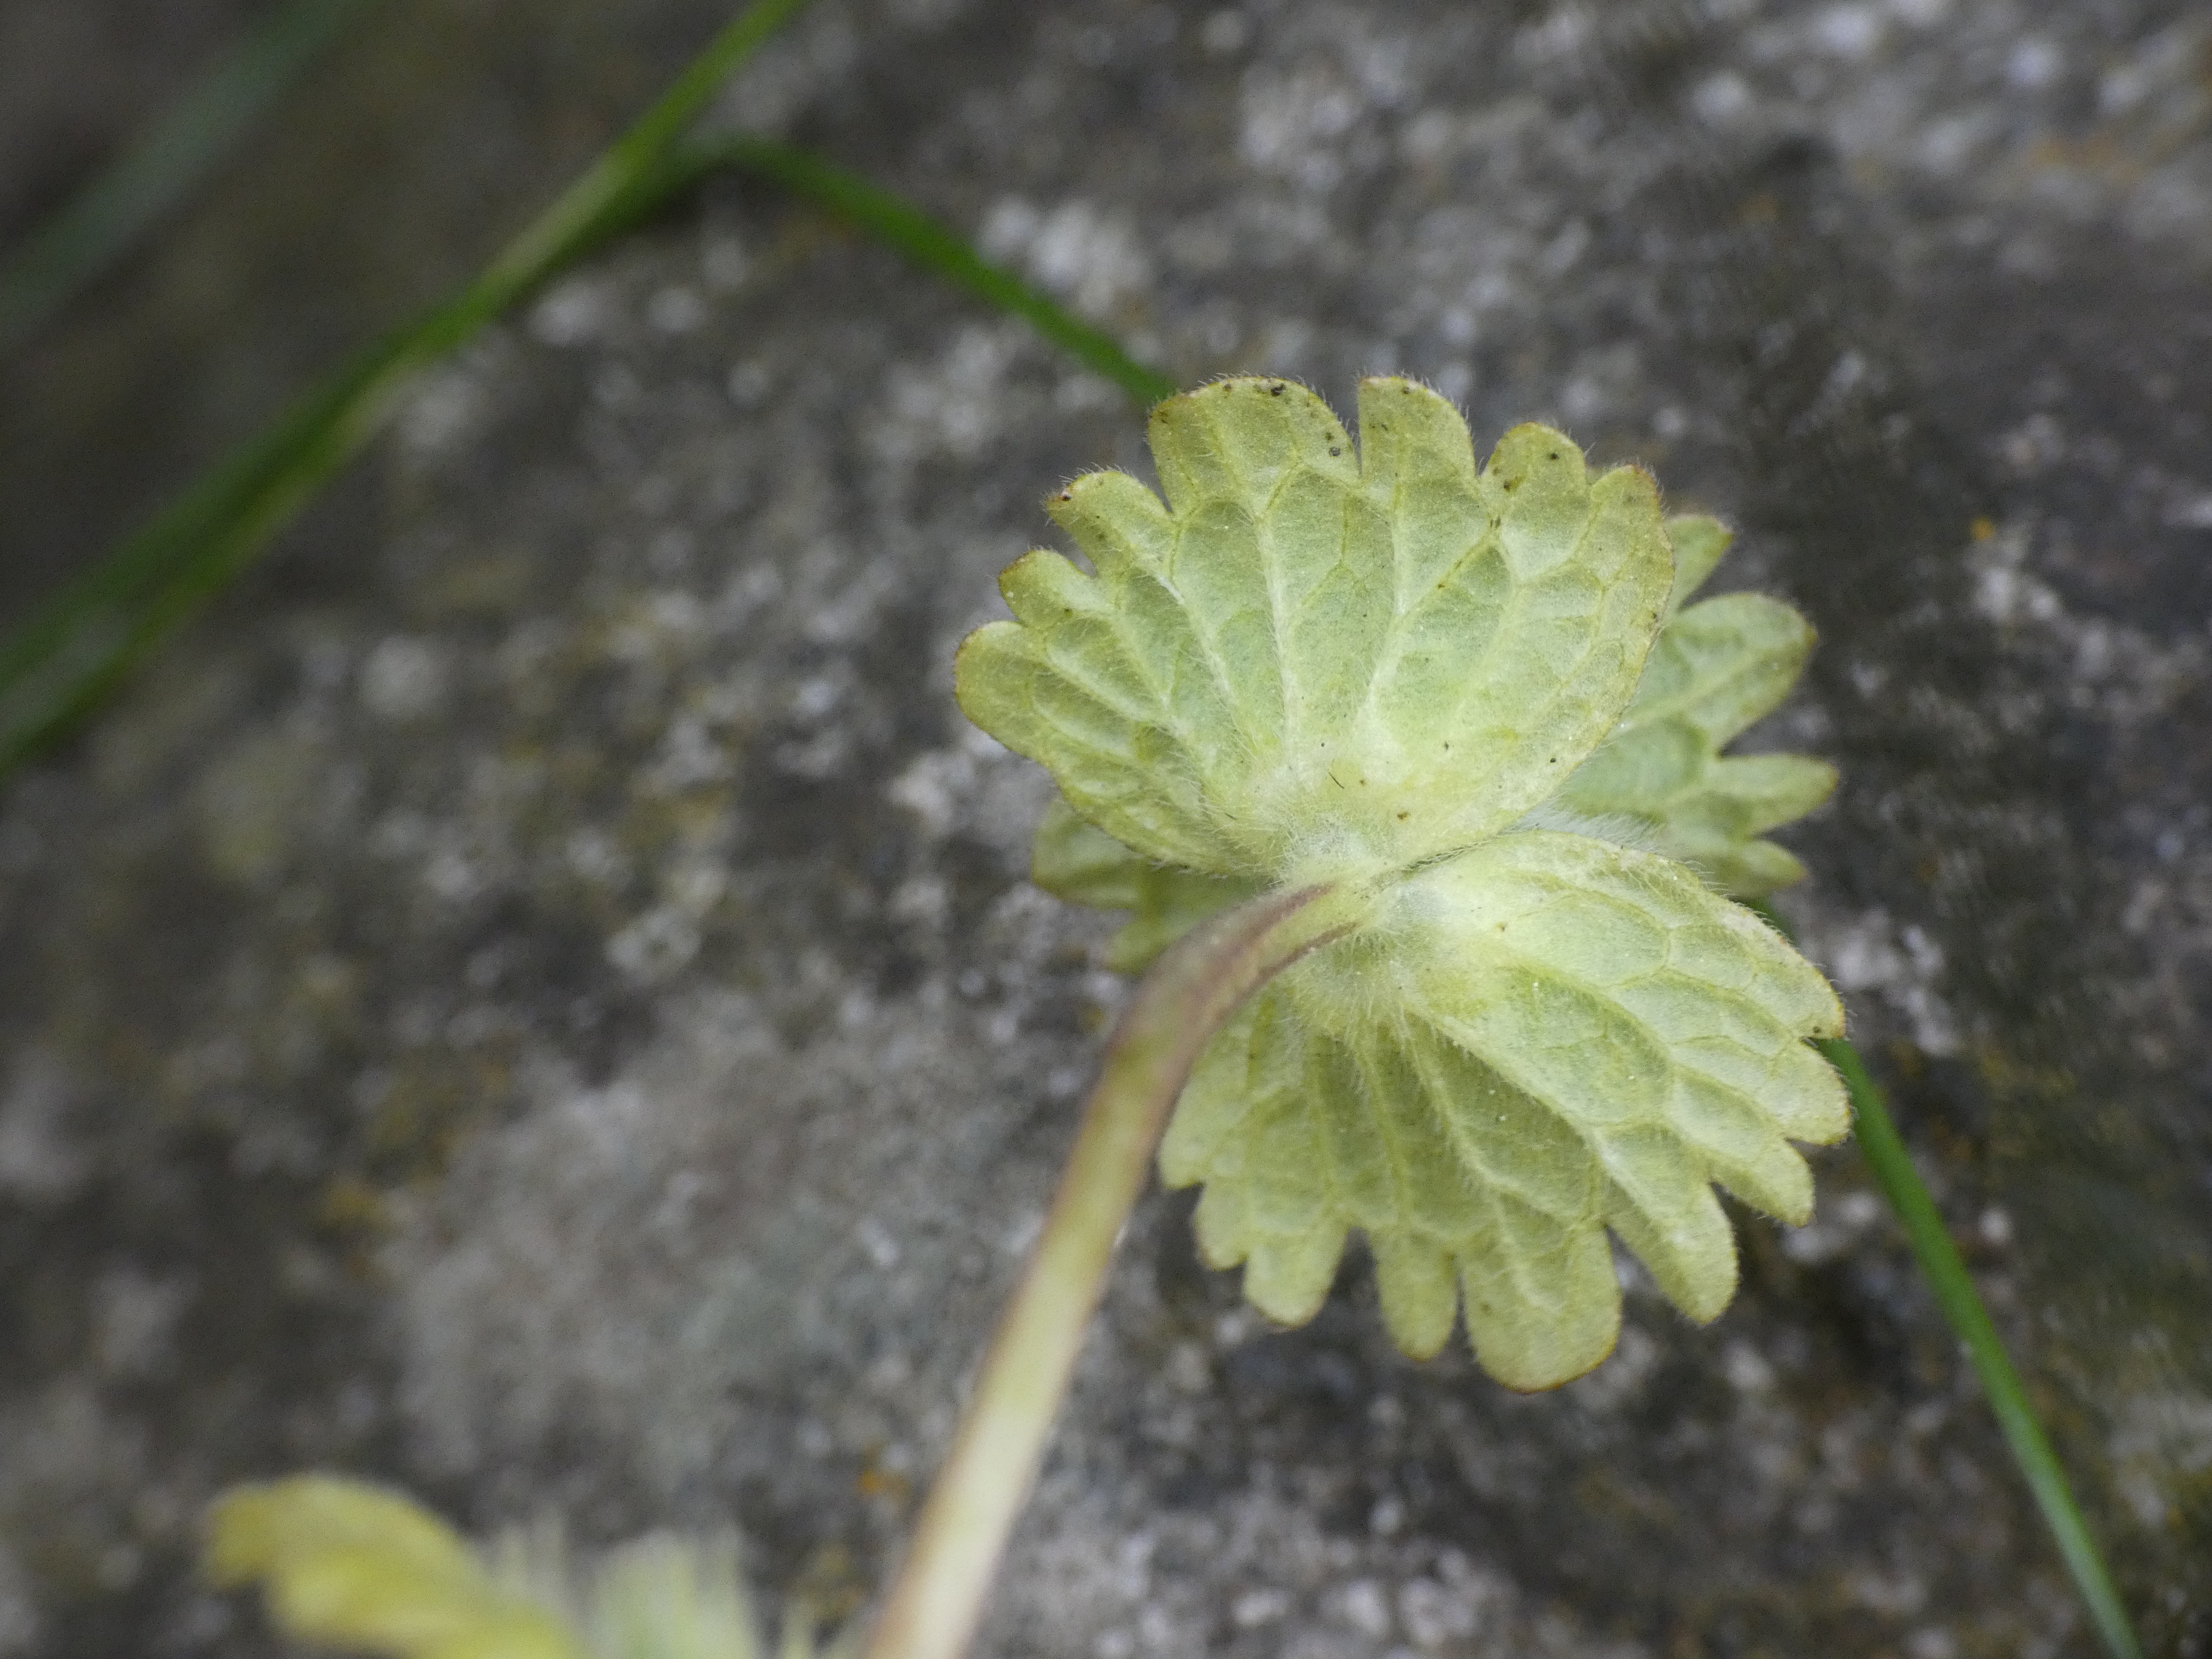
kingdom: Plantae
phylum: Tracheophyta
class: Magnoliopsida
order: Lamiales
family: Lamiaceae
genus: Lamium
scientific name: Lamium amplexicaule
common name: Liden tvetand
